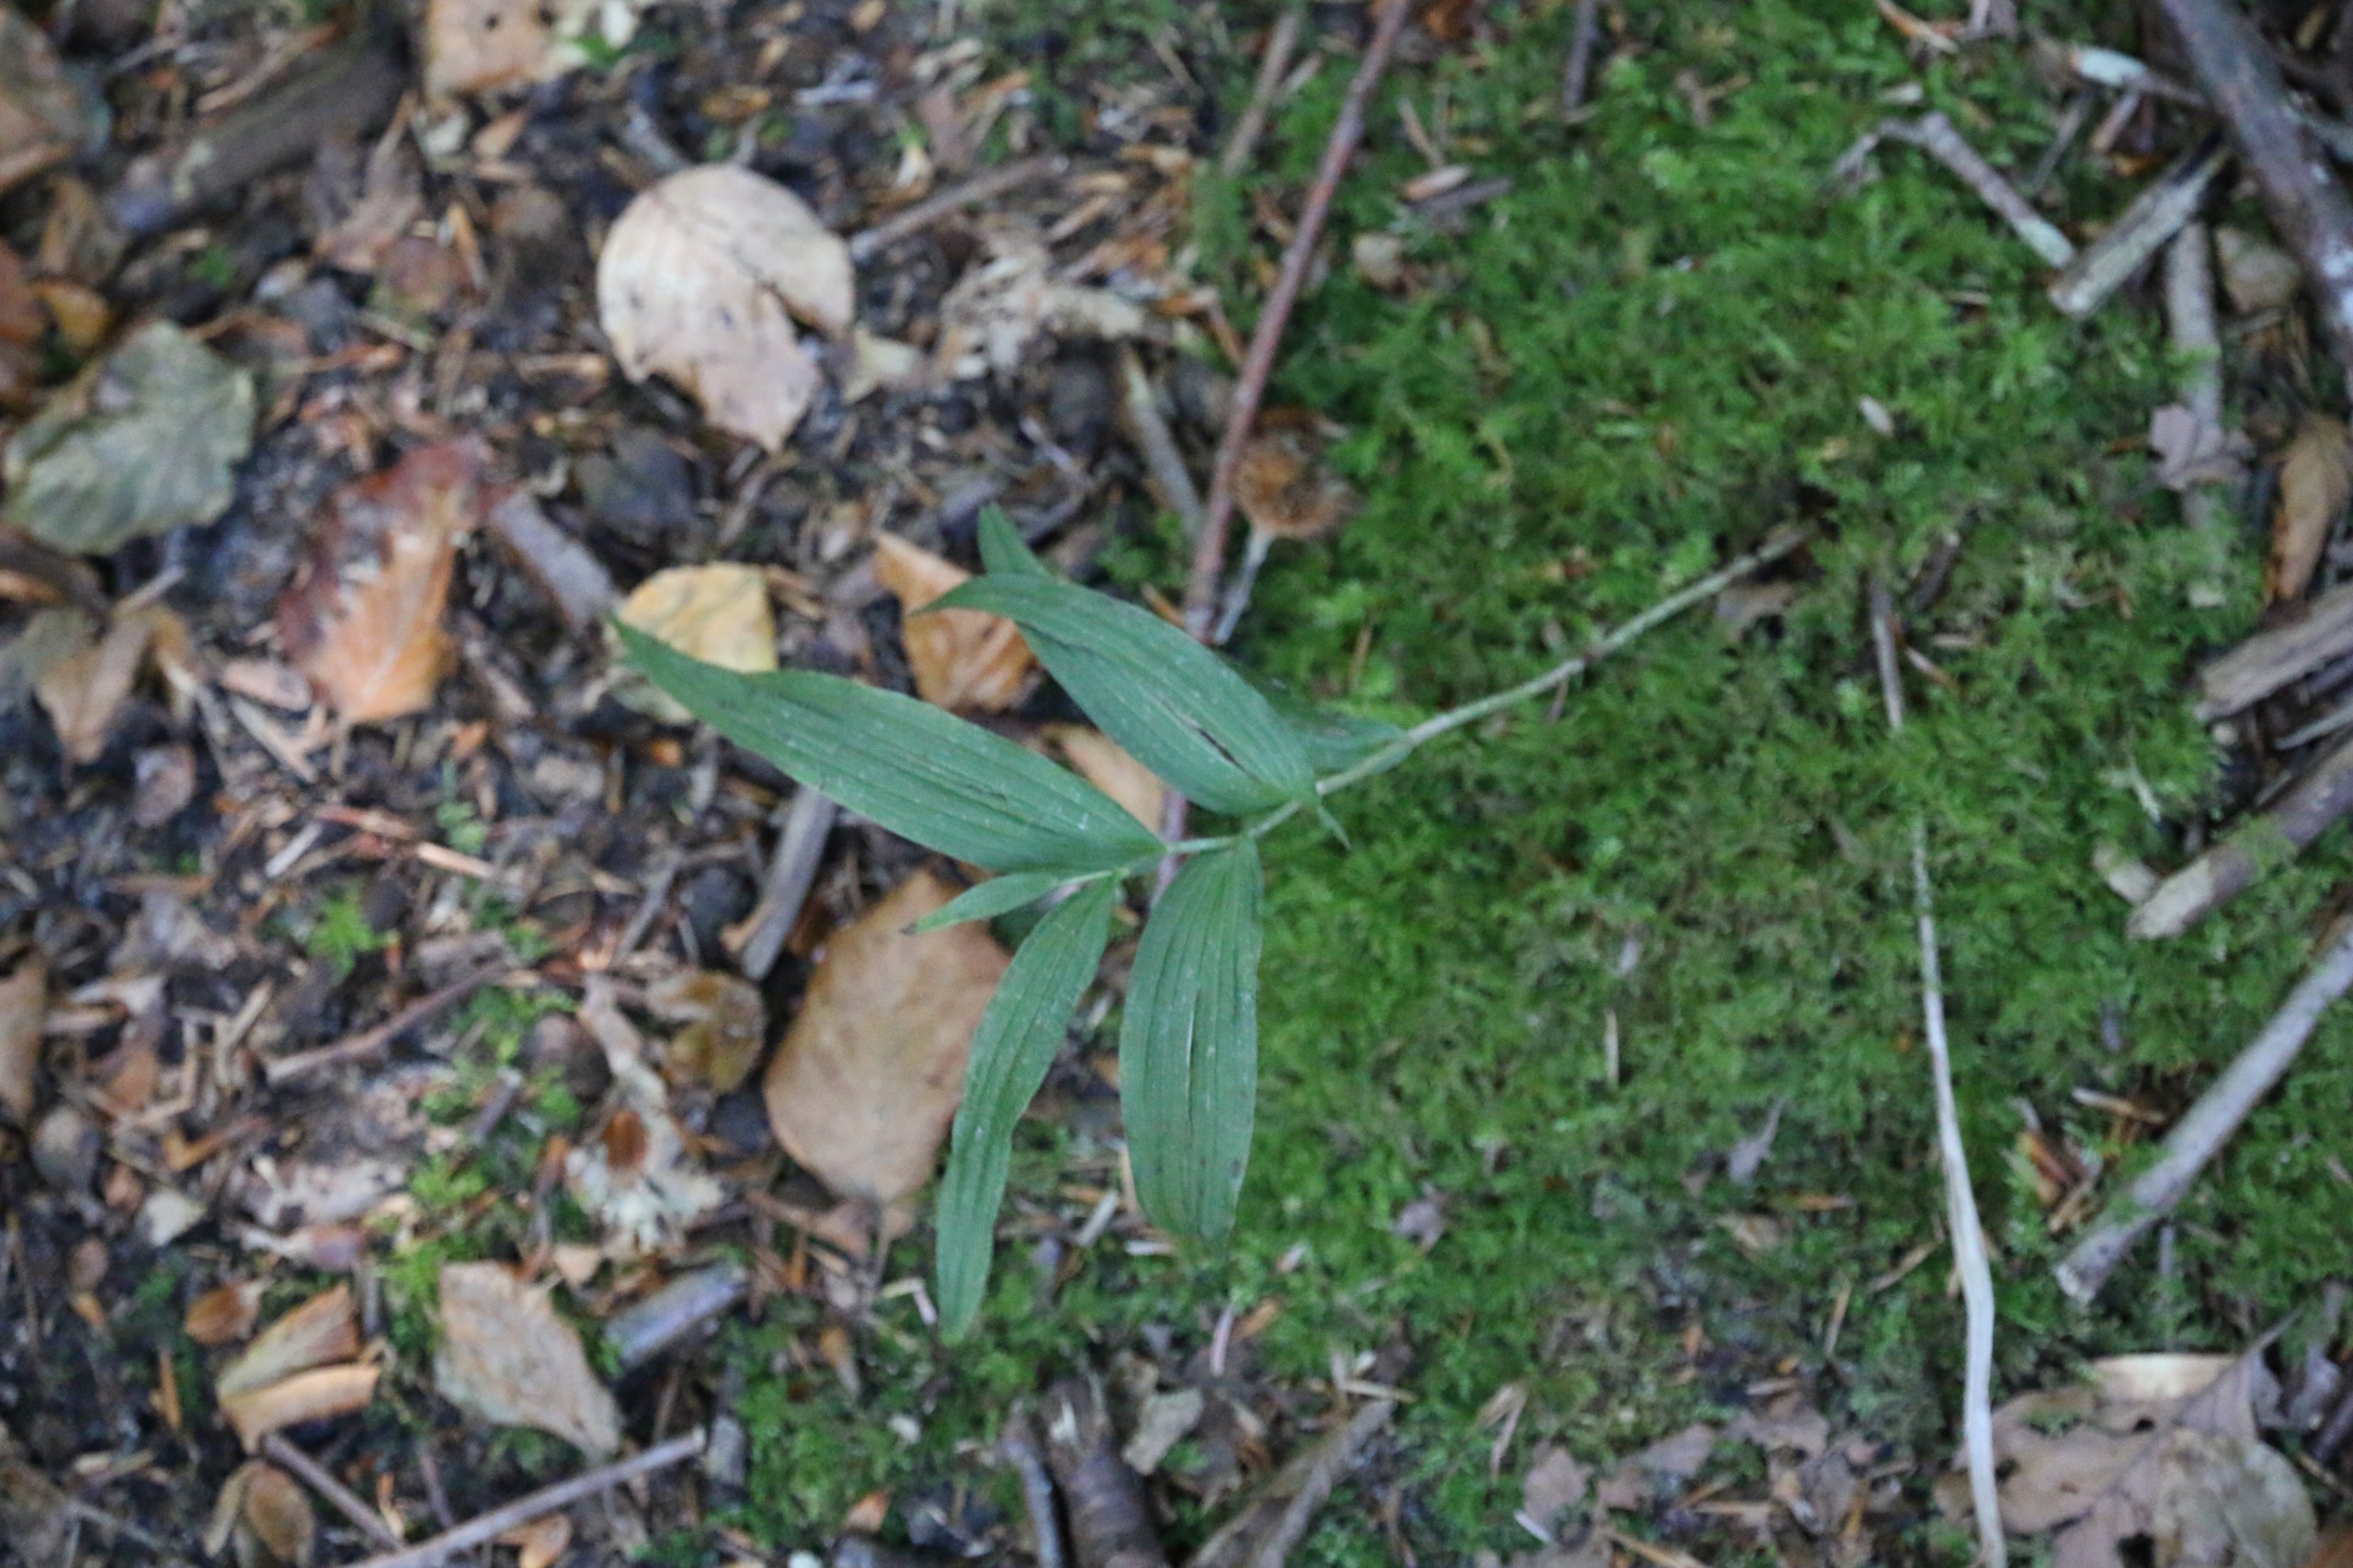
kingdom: Plantae
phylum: Tracheophyta
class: Liliopsida
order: Asparagales
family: Orchidaceae
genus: Epipactis
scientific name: Epipactis helleborine
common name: Skov-hullæbe
